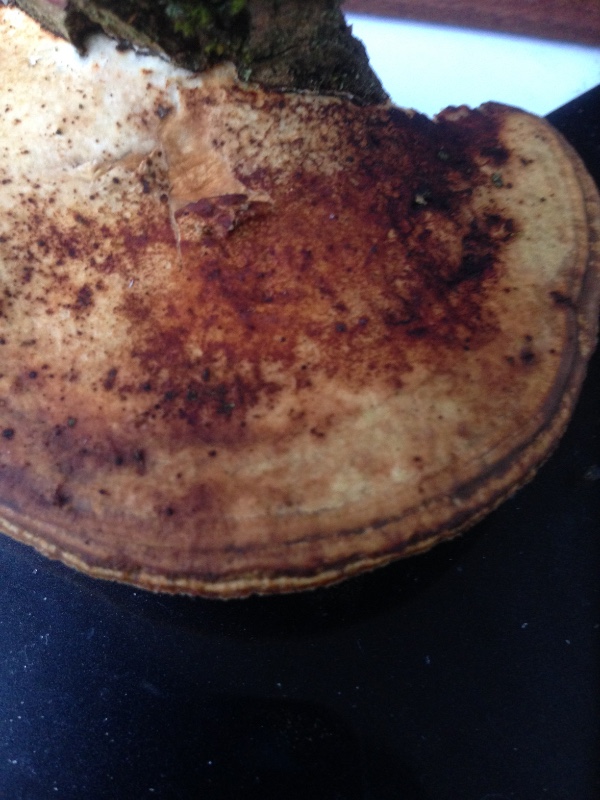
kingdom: Fungi
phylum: Basidiomycota
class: Agaricomycetes
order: Polyporales
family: Polyporaceae
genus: Daedaleopsis
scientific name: Daedaleopsis confragosa
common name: rødmende læderporesvamp
